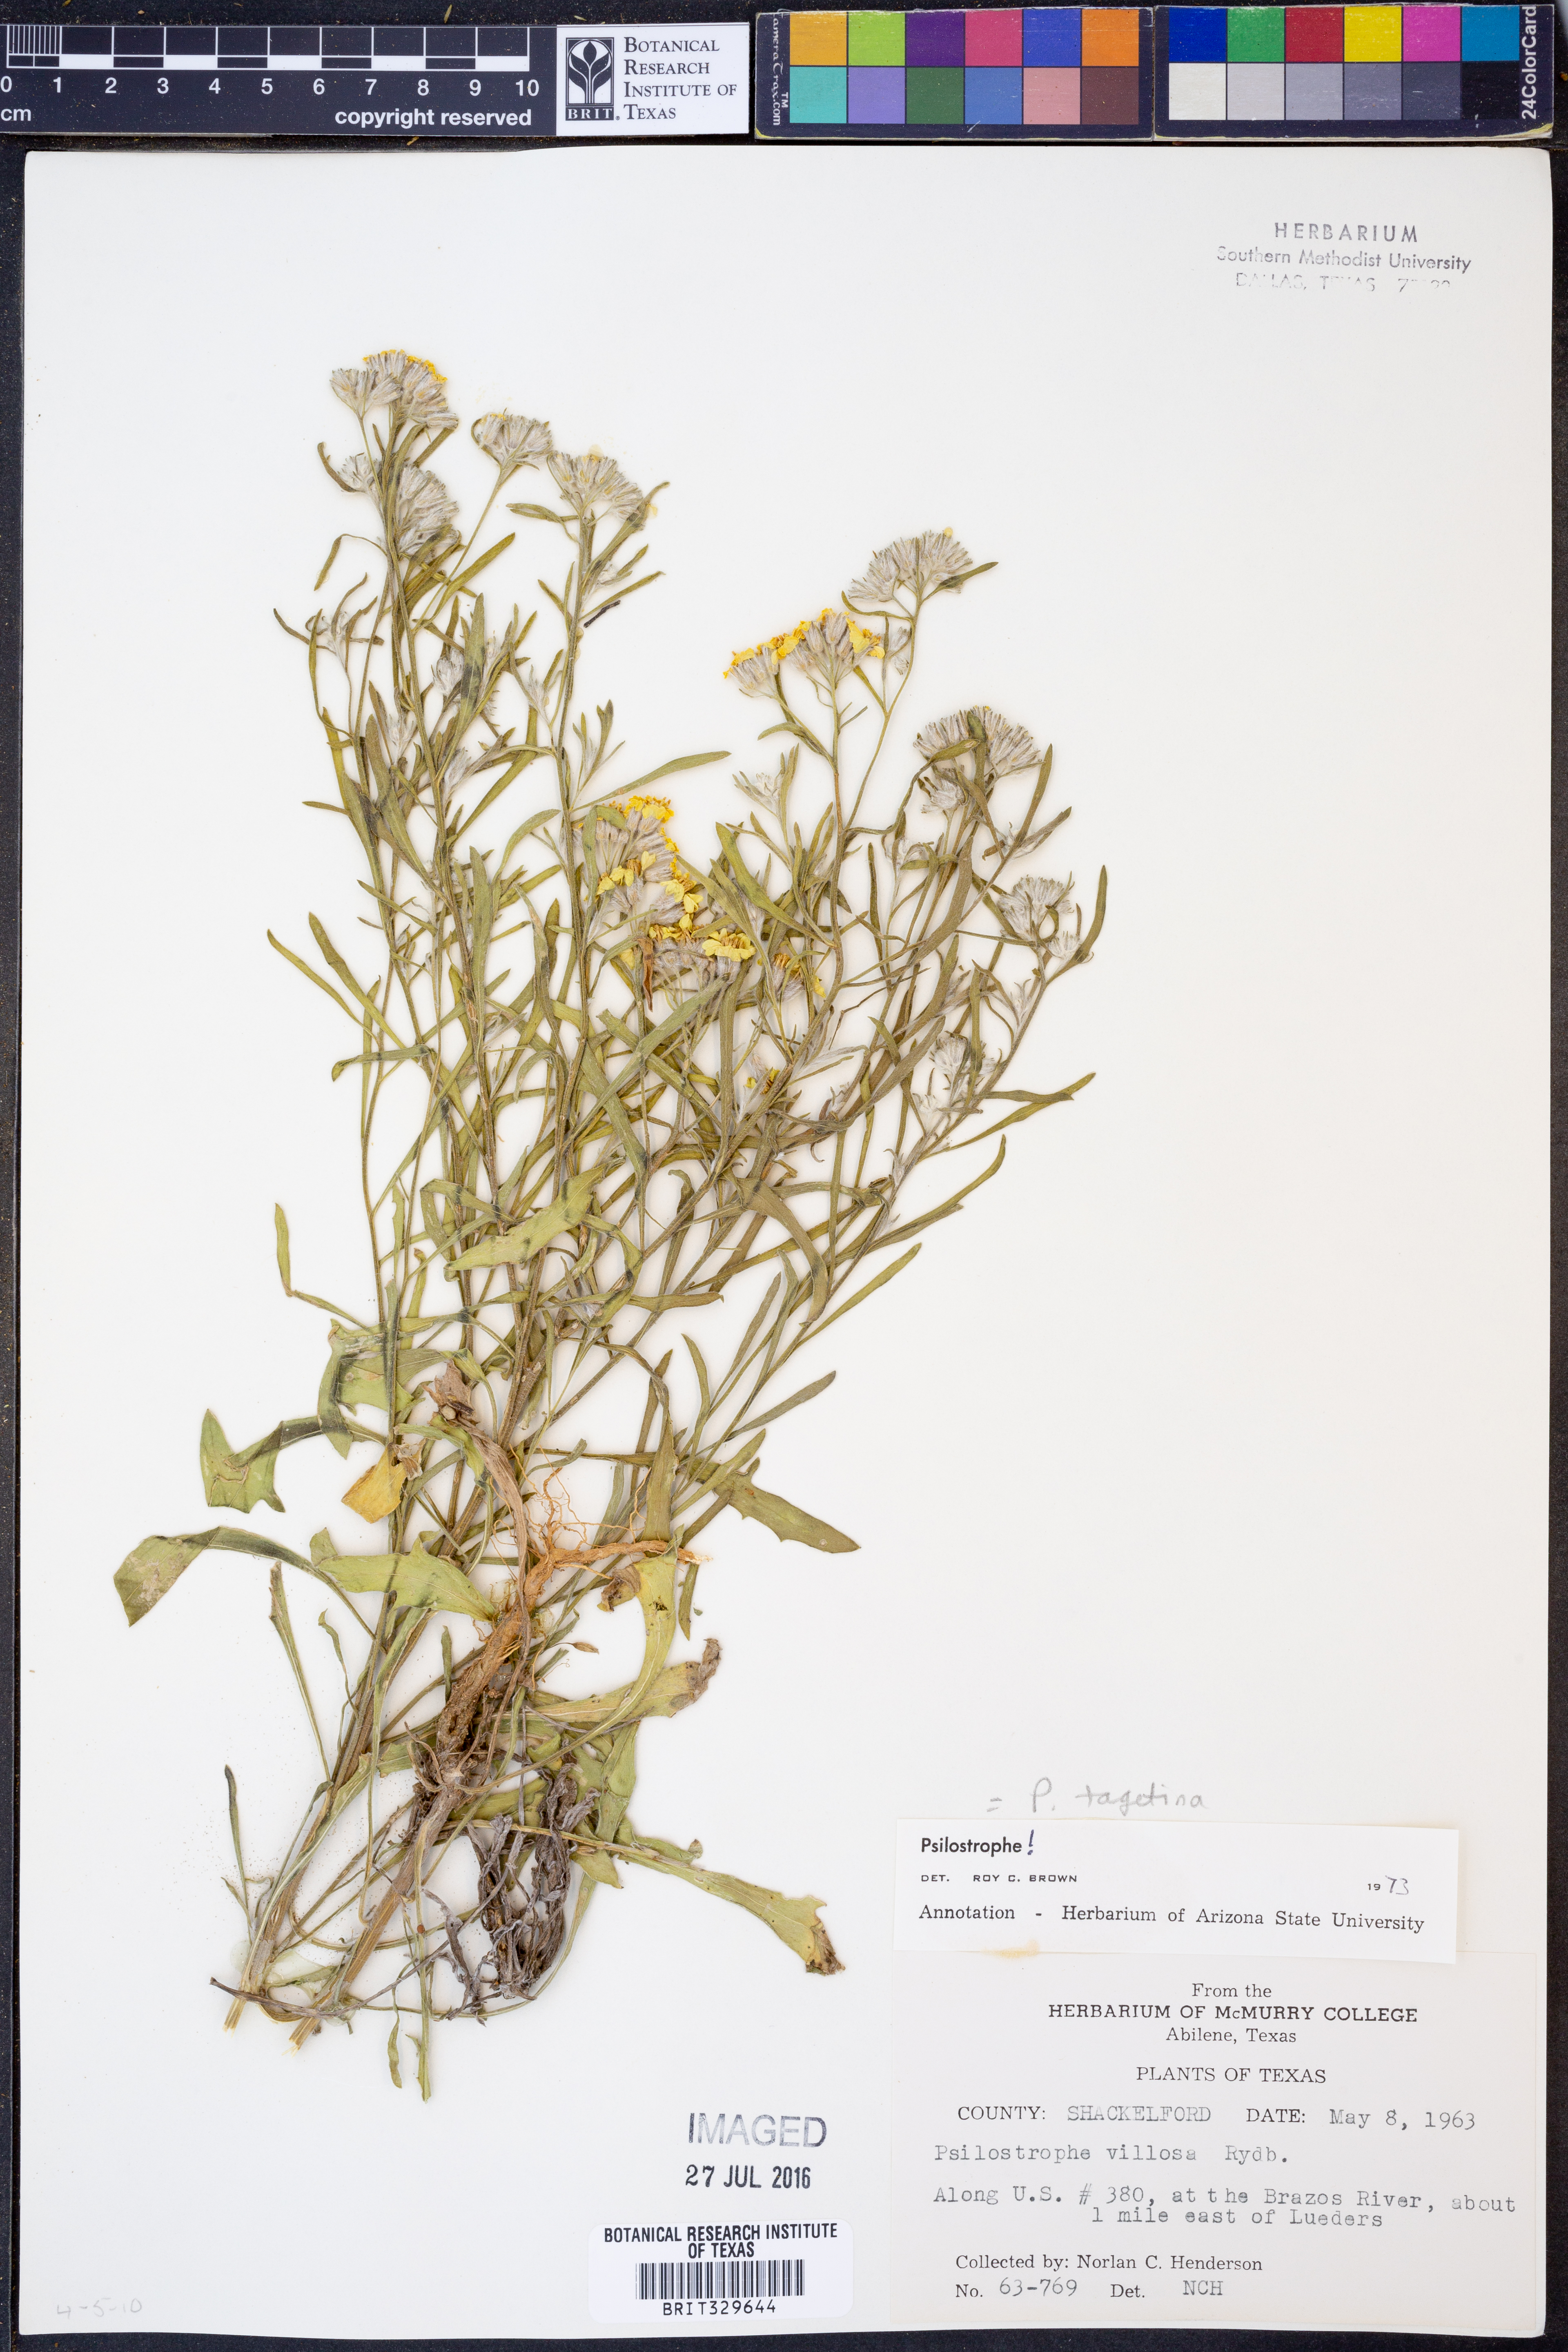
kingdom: Plantae
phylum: Tracheophyta
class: Magnoliopsida
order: Asterales
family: Asteraceae
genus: Psilostrophe
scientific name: Psilostrophe tagetina
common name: Marigold paper-flower
